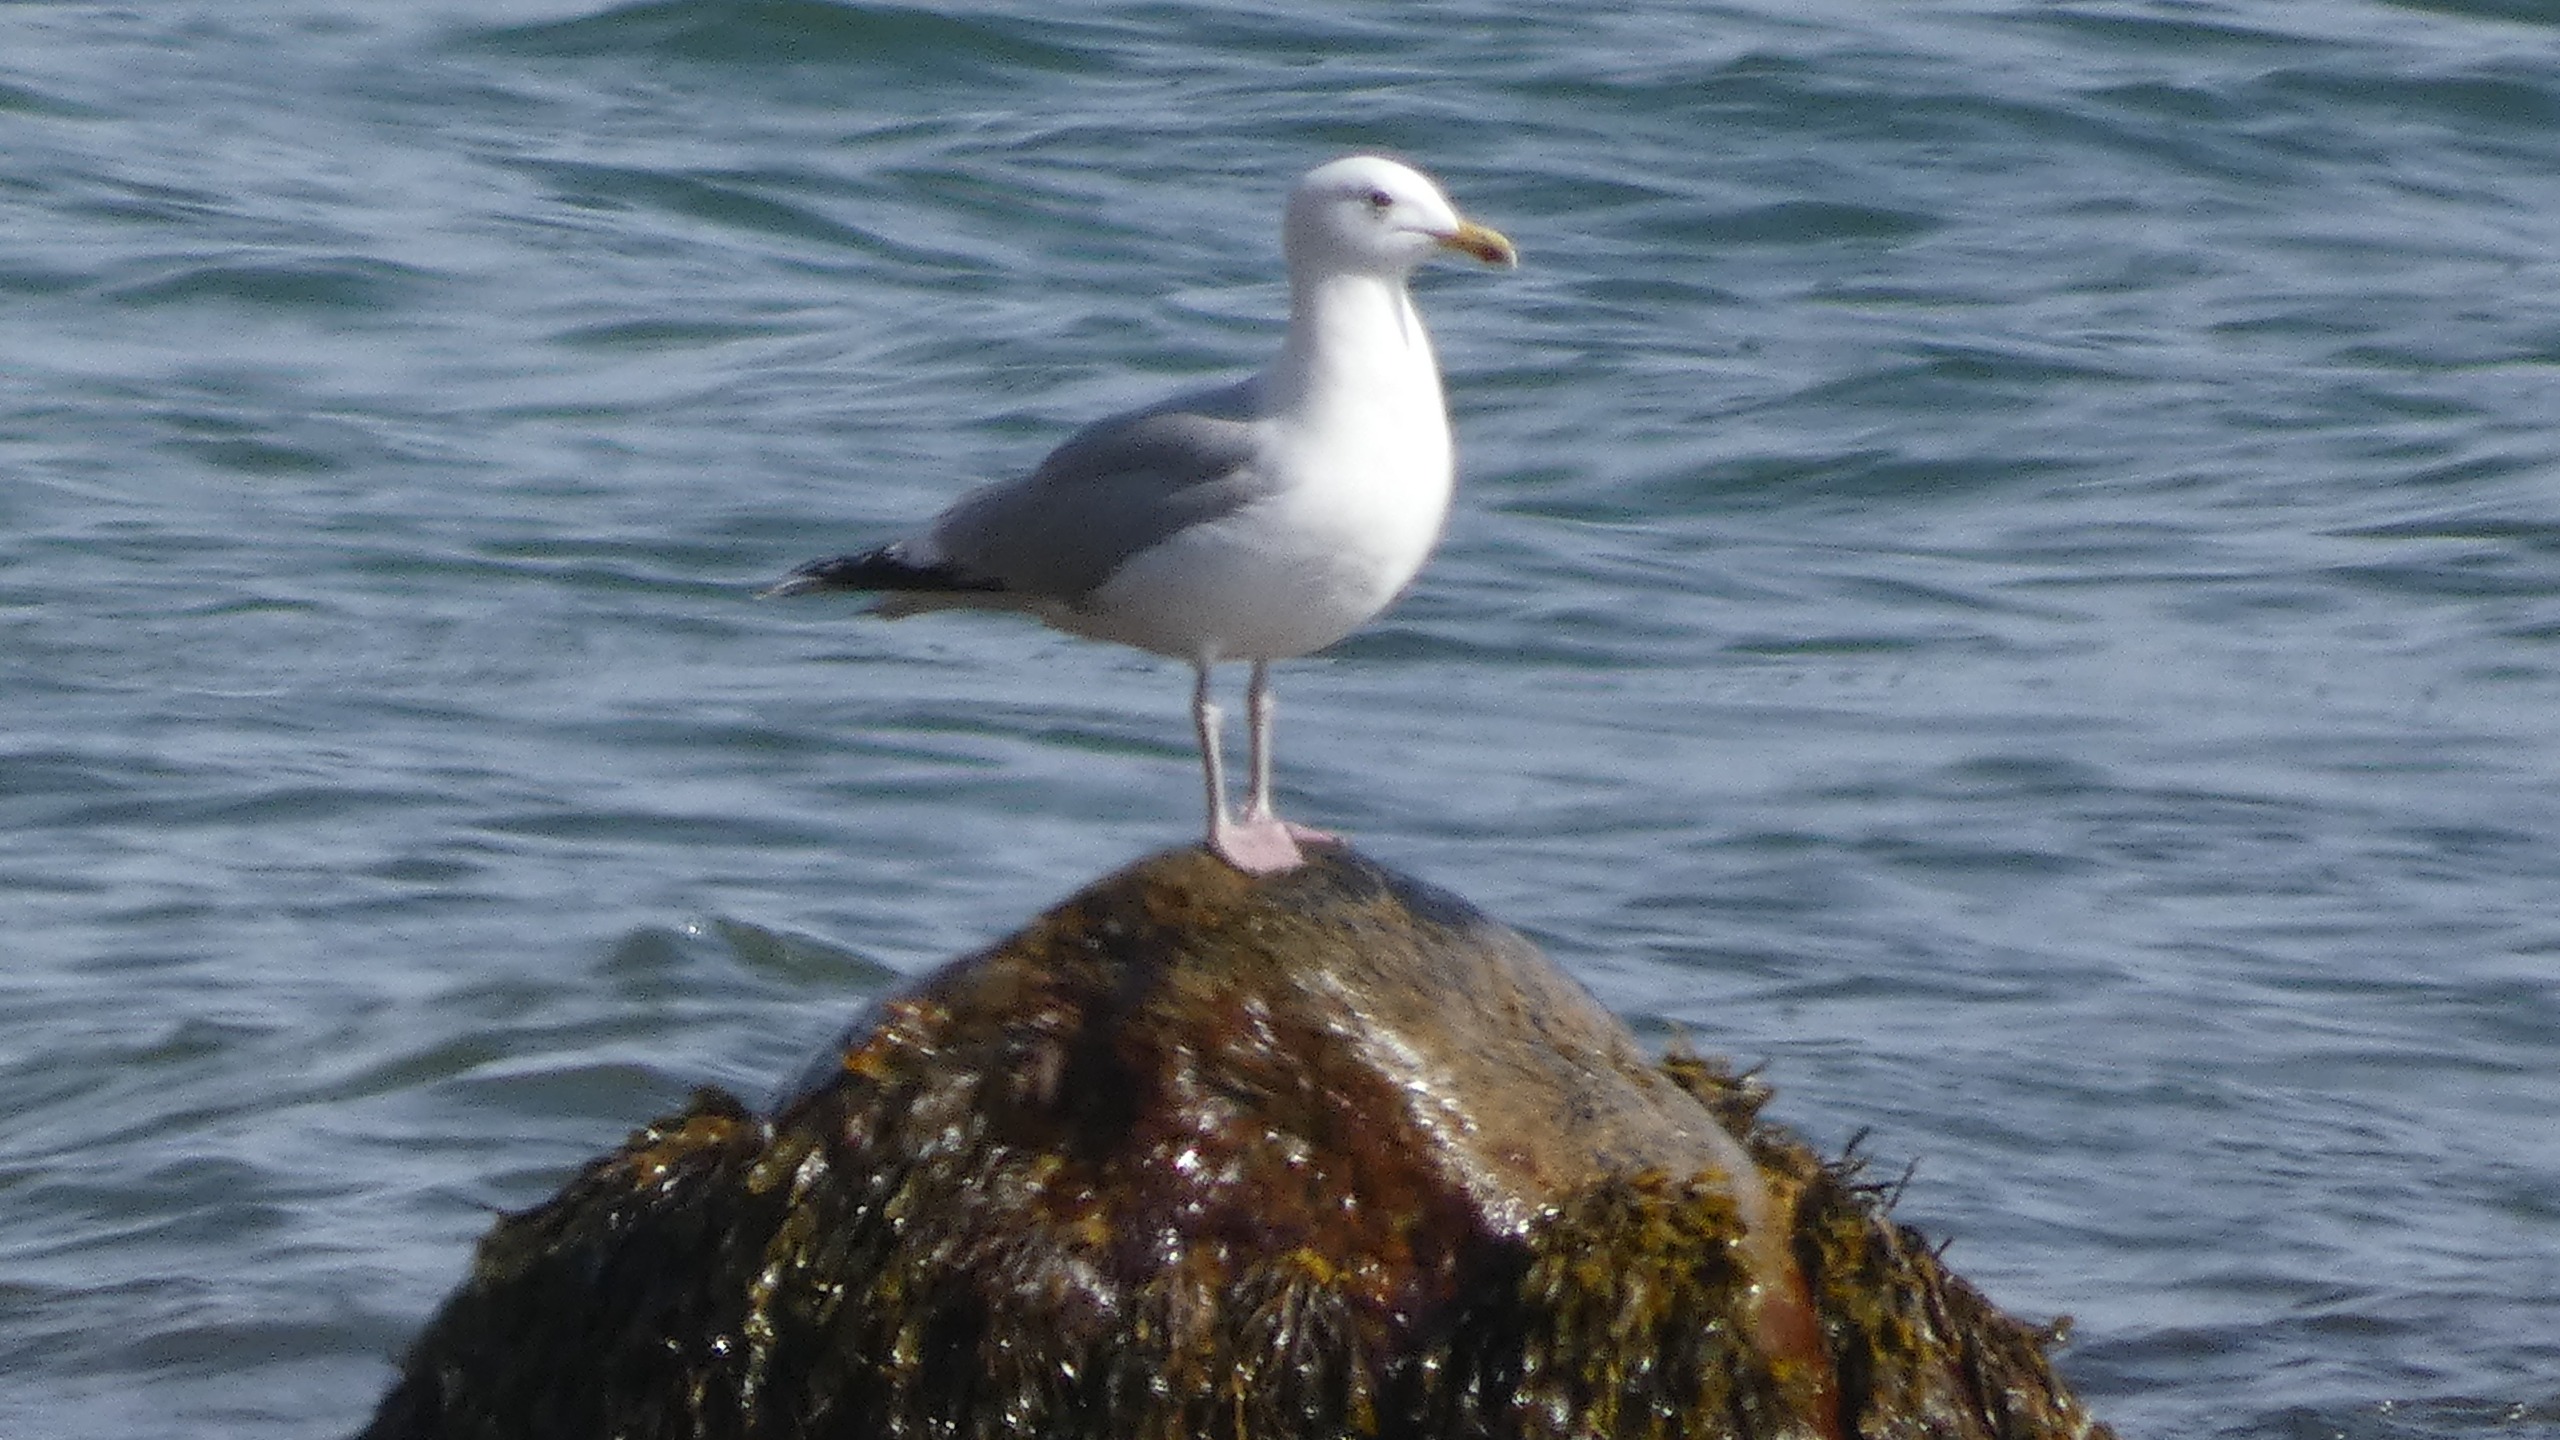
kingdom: Animalia
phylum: Chordata
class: Aves
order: Charadriiformes
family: Laridae
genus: Larus
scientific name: Larus argentatus
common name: Sølvmåge
